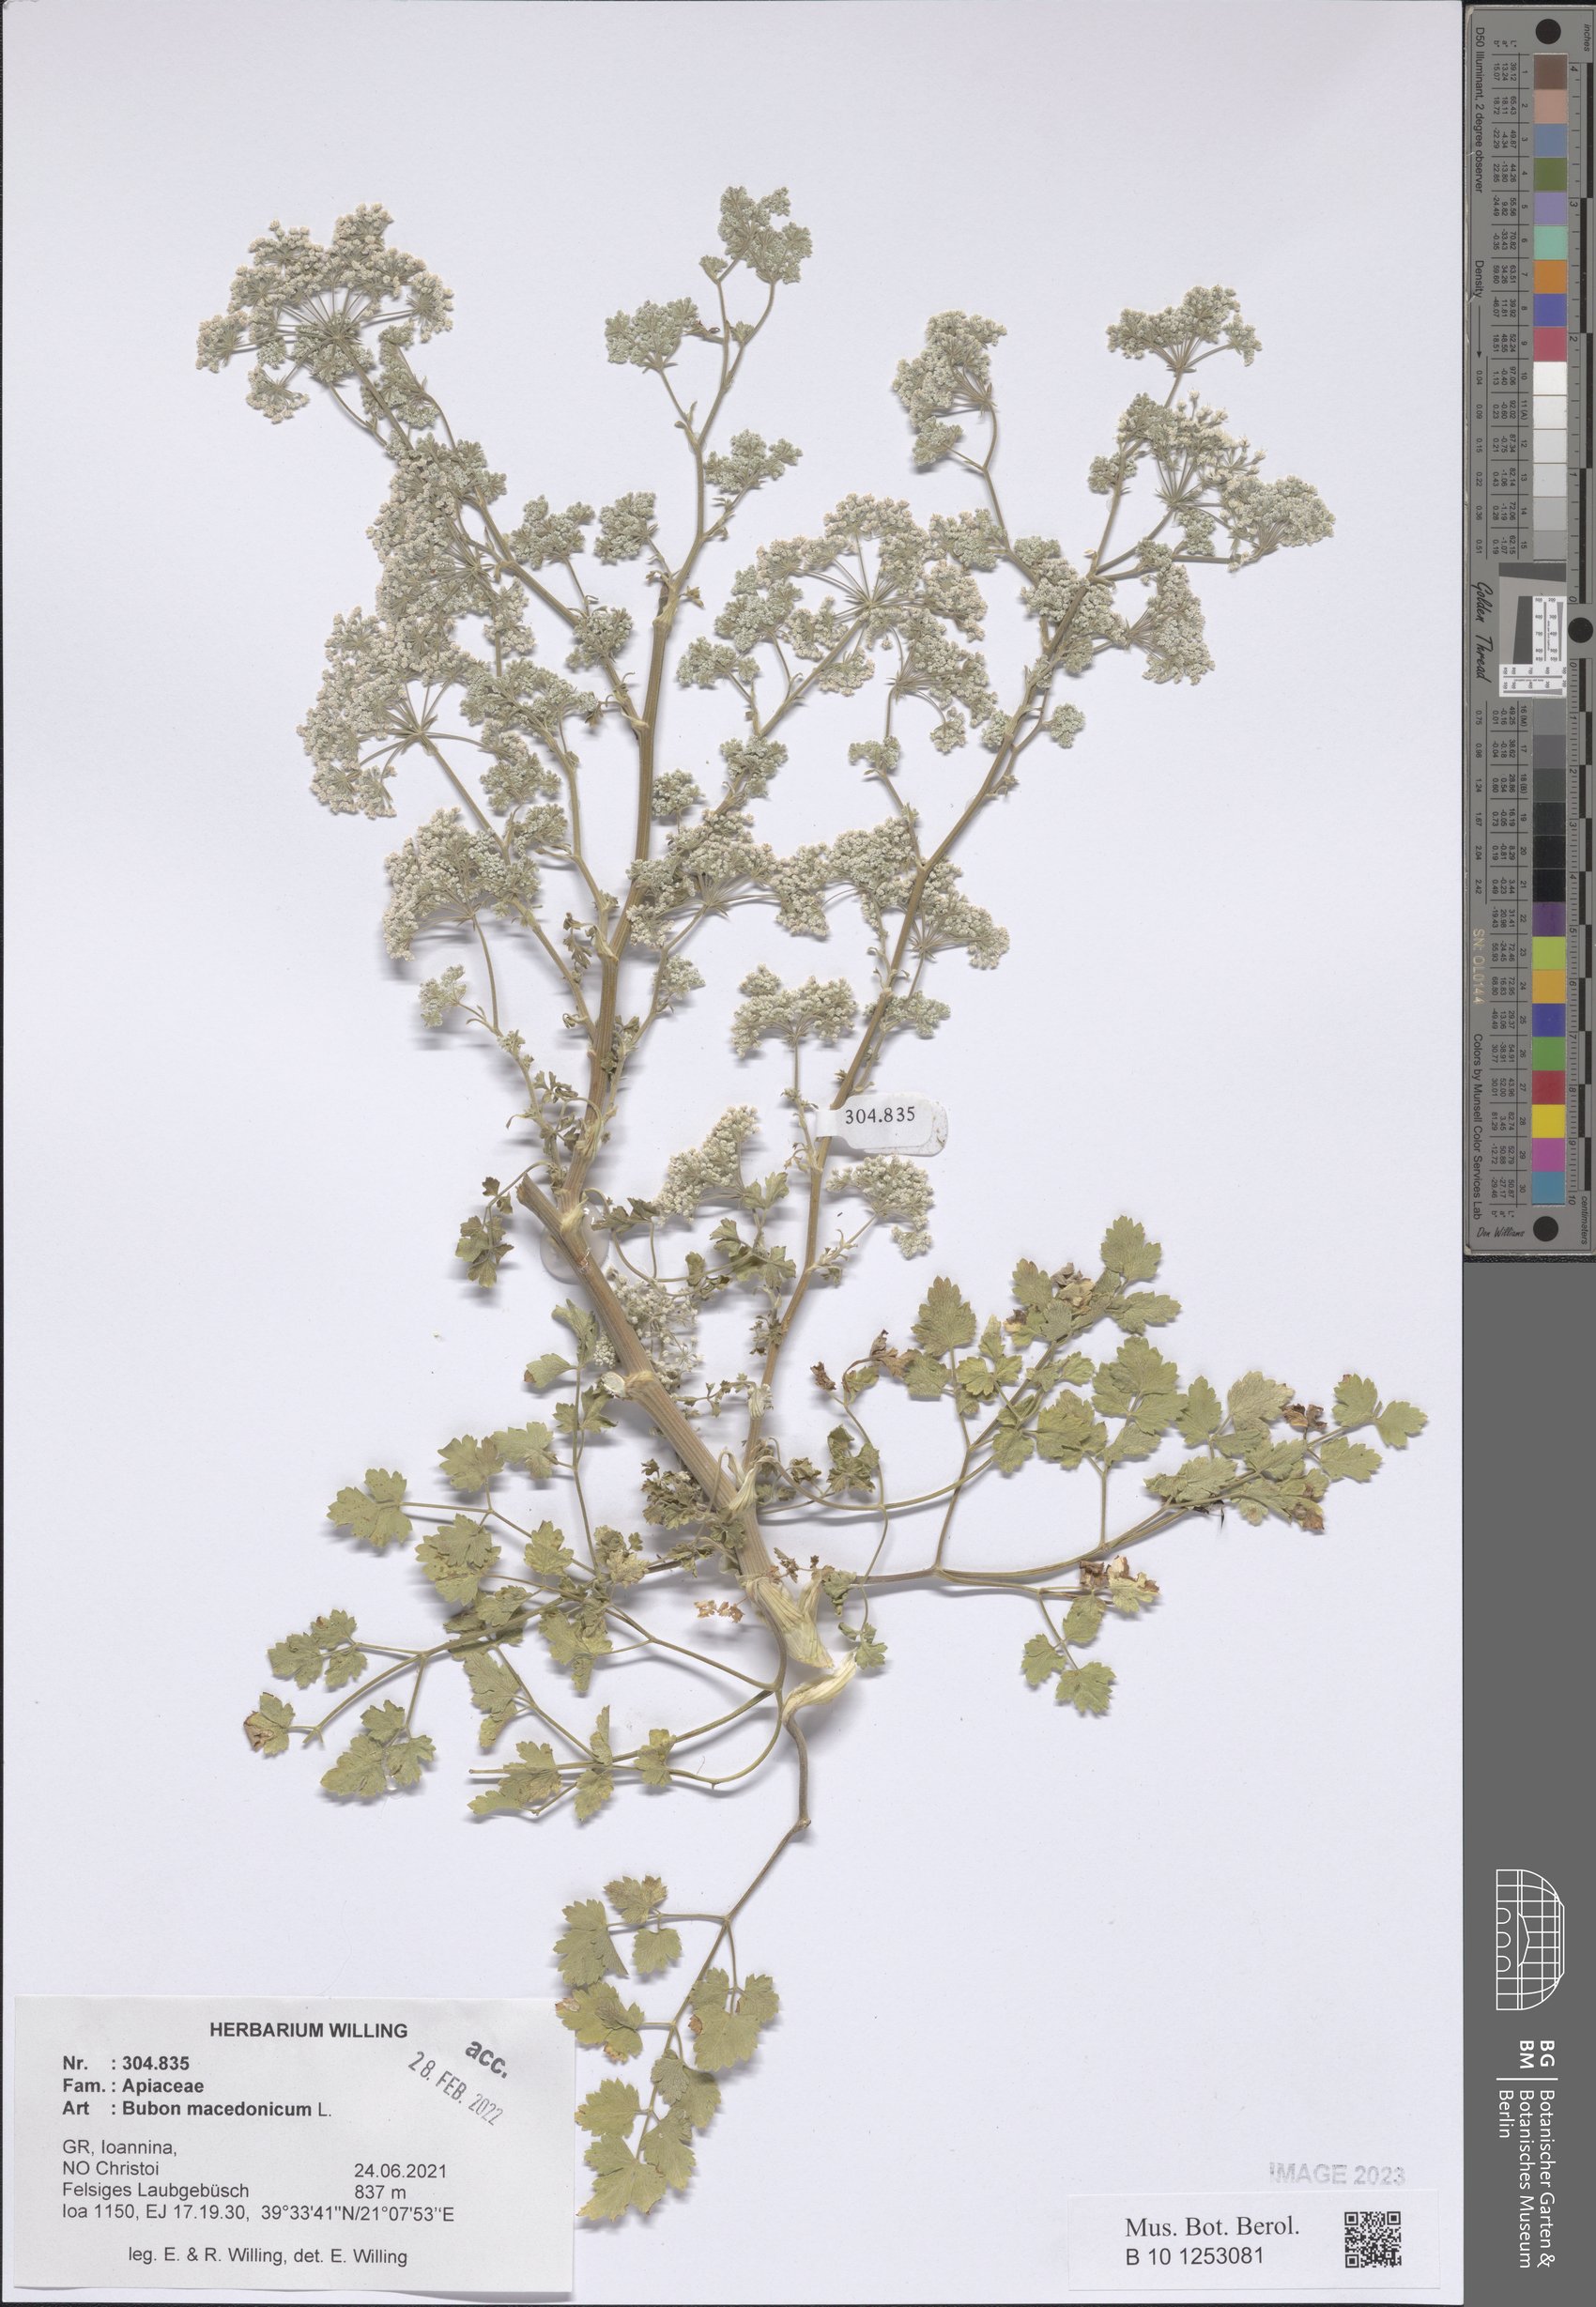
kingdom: Plantae
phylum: Tracheophyta
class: Magnoliopsida
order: Apiales
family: Apiaceae
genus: Bubon
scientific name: Bubon macedonicum
